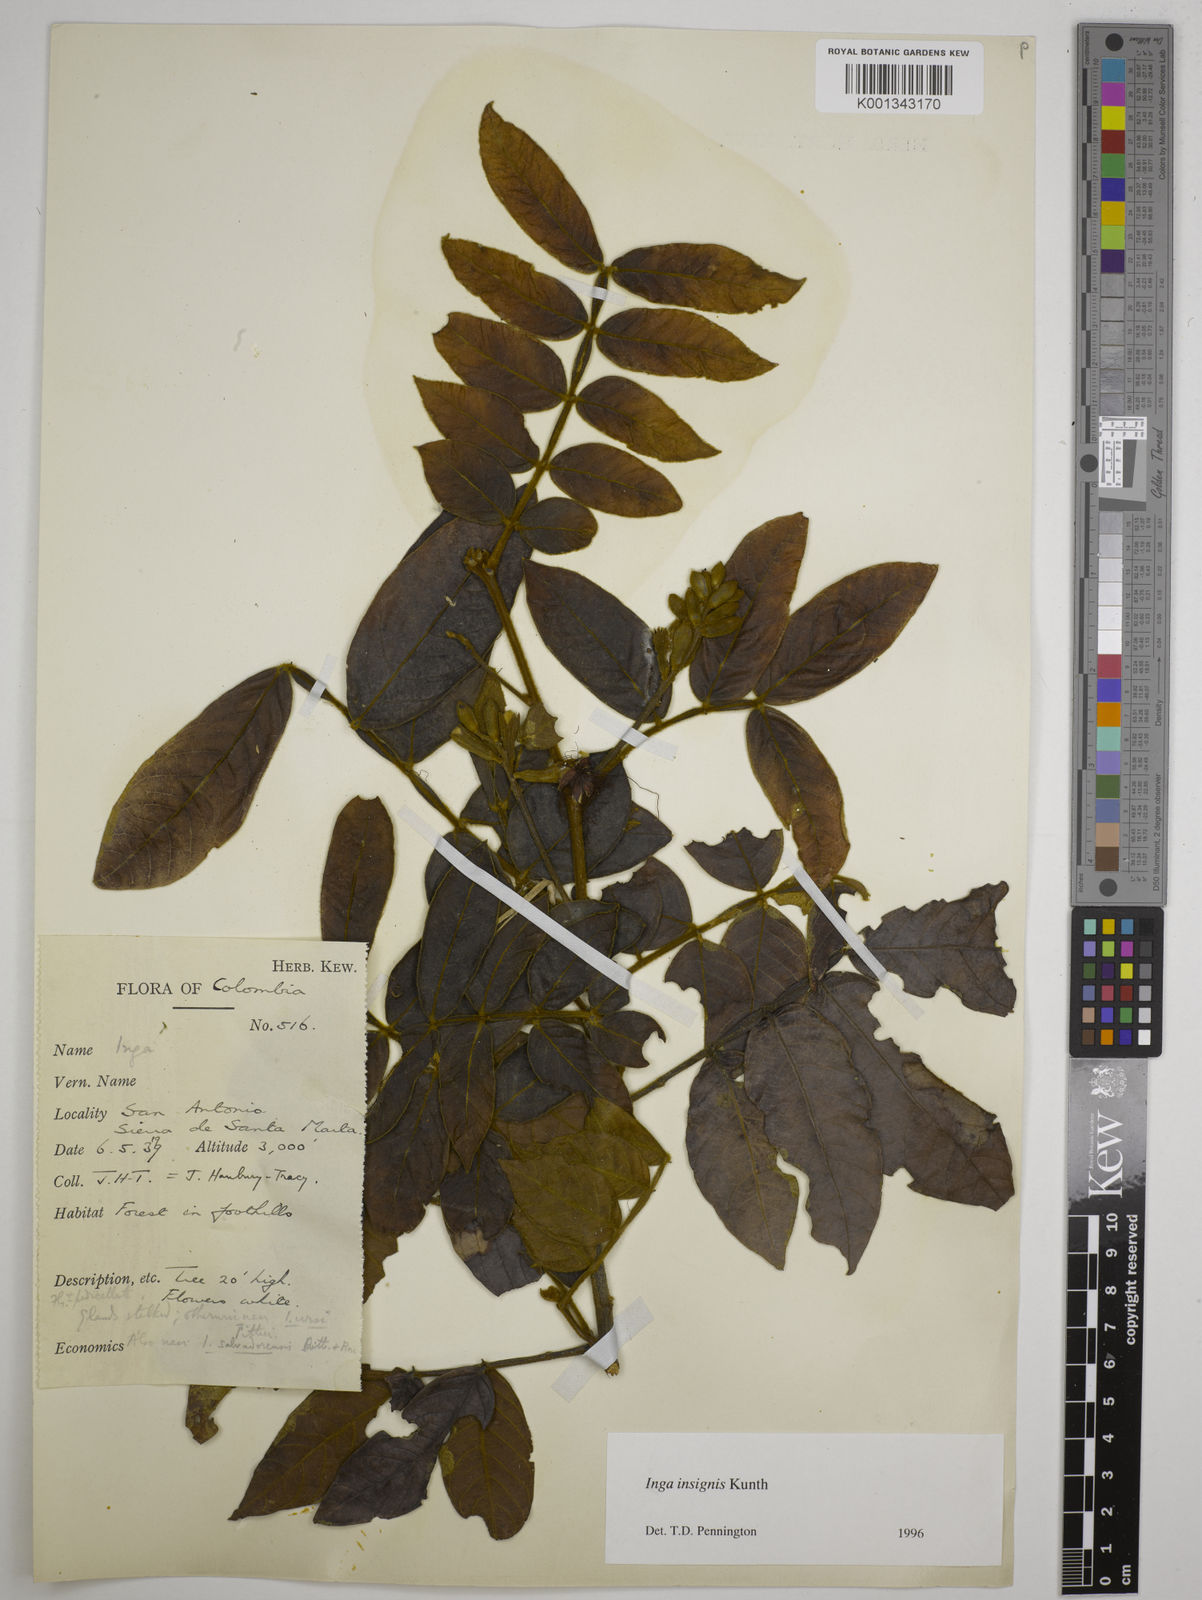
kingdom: Plantae
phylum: Tracheophyta
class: Magnoliopsida
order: Fabales
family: Fabaceae
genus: Inga
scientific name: Inga insignis
